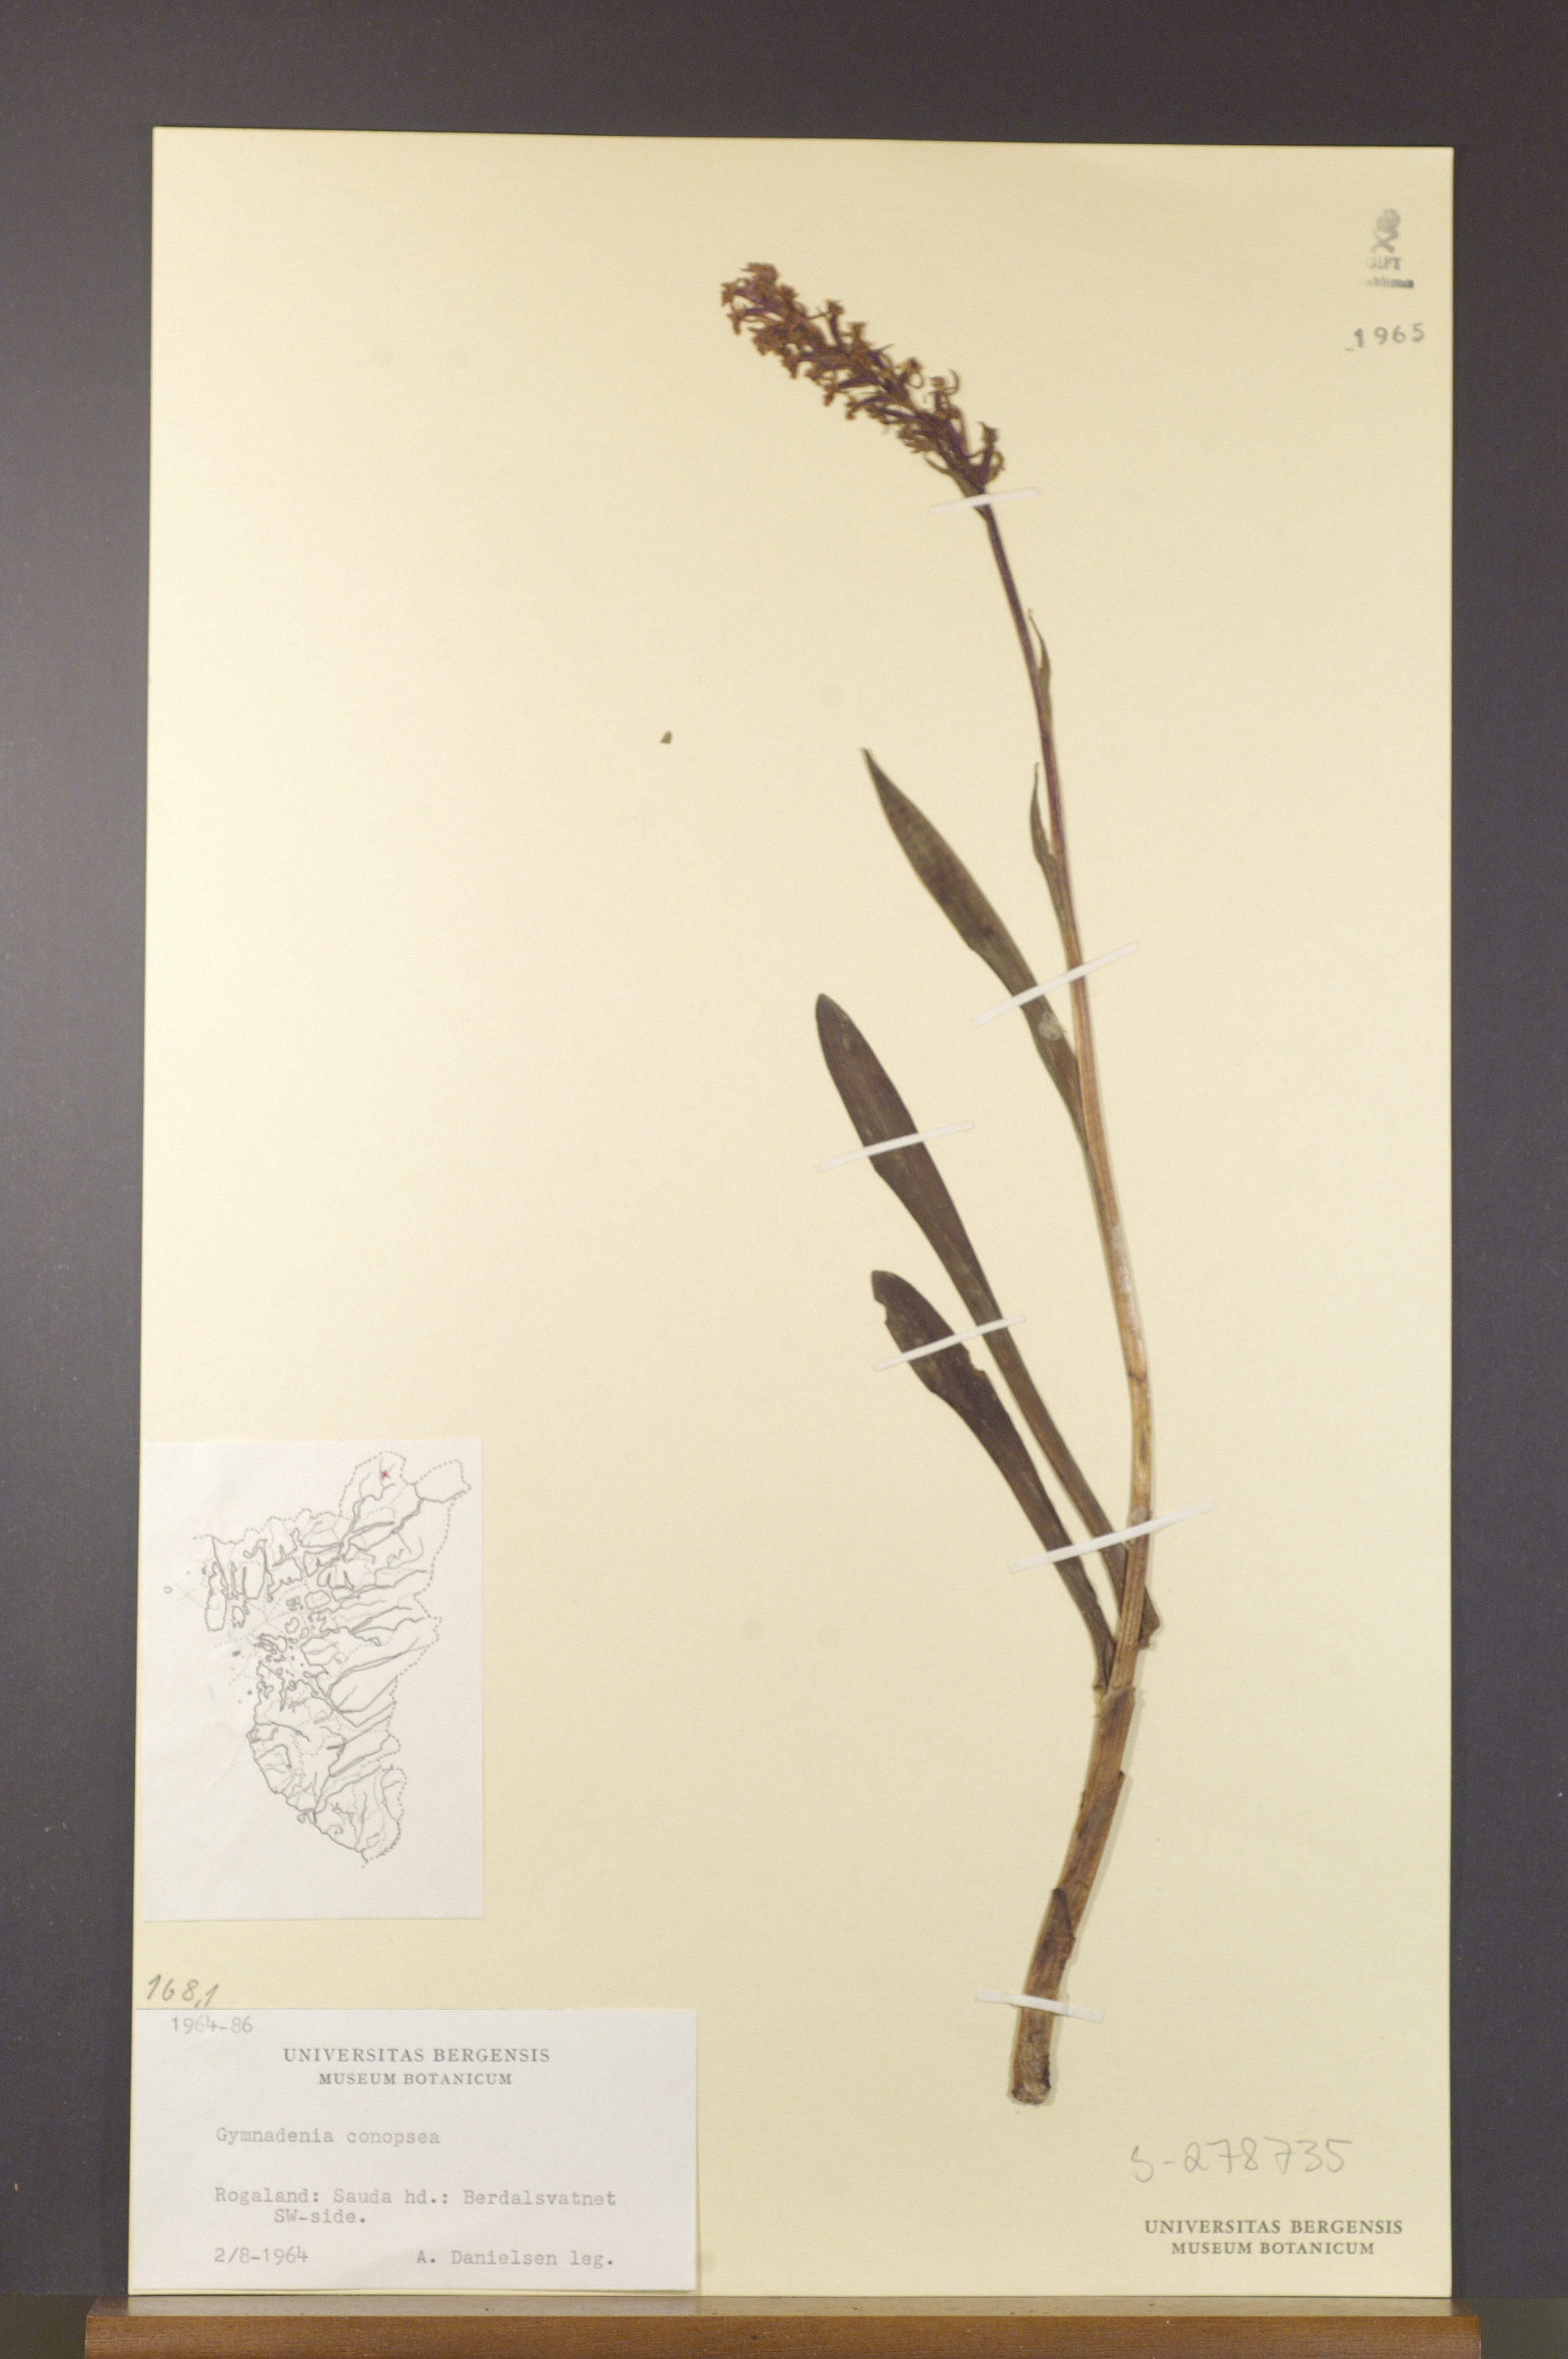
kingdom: Plantae
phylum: Tracheophyta
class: Liliopsida
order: Asparagales
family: Orchidaceae
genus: Gymnadenia
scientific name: Gymnadenia conopsea
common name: Fragrant orchid
